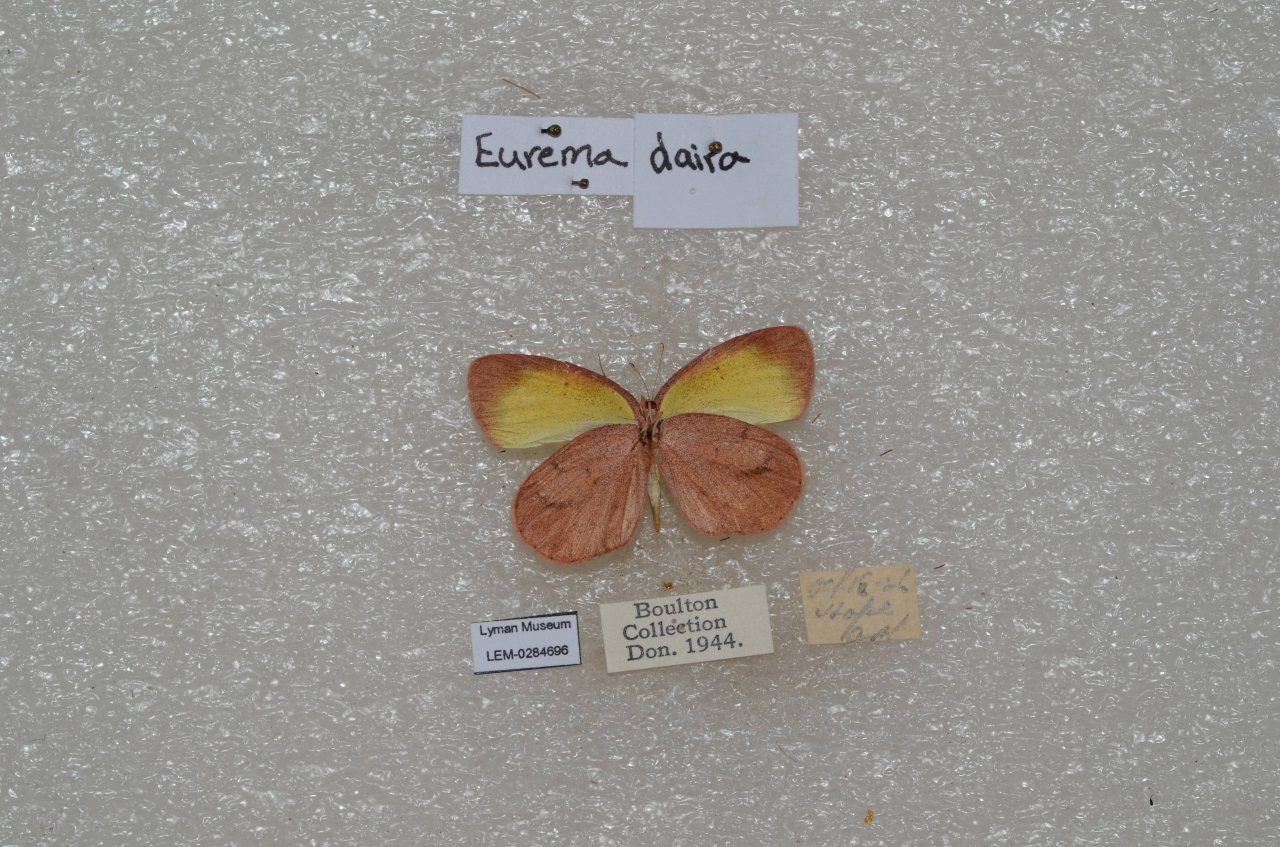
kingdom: Animalia
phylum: Arthropoda
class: Insecta
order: Lepidoptera
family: Pieridae
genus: Eurema
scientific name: Eurema daira
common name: Barred Yellow
